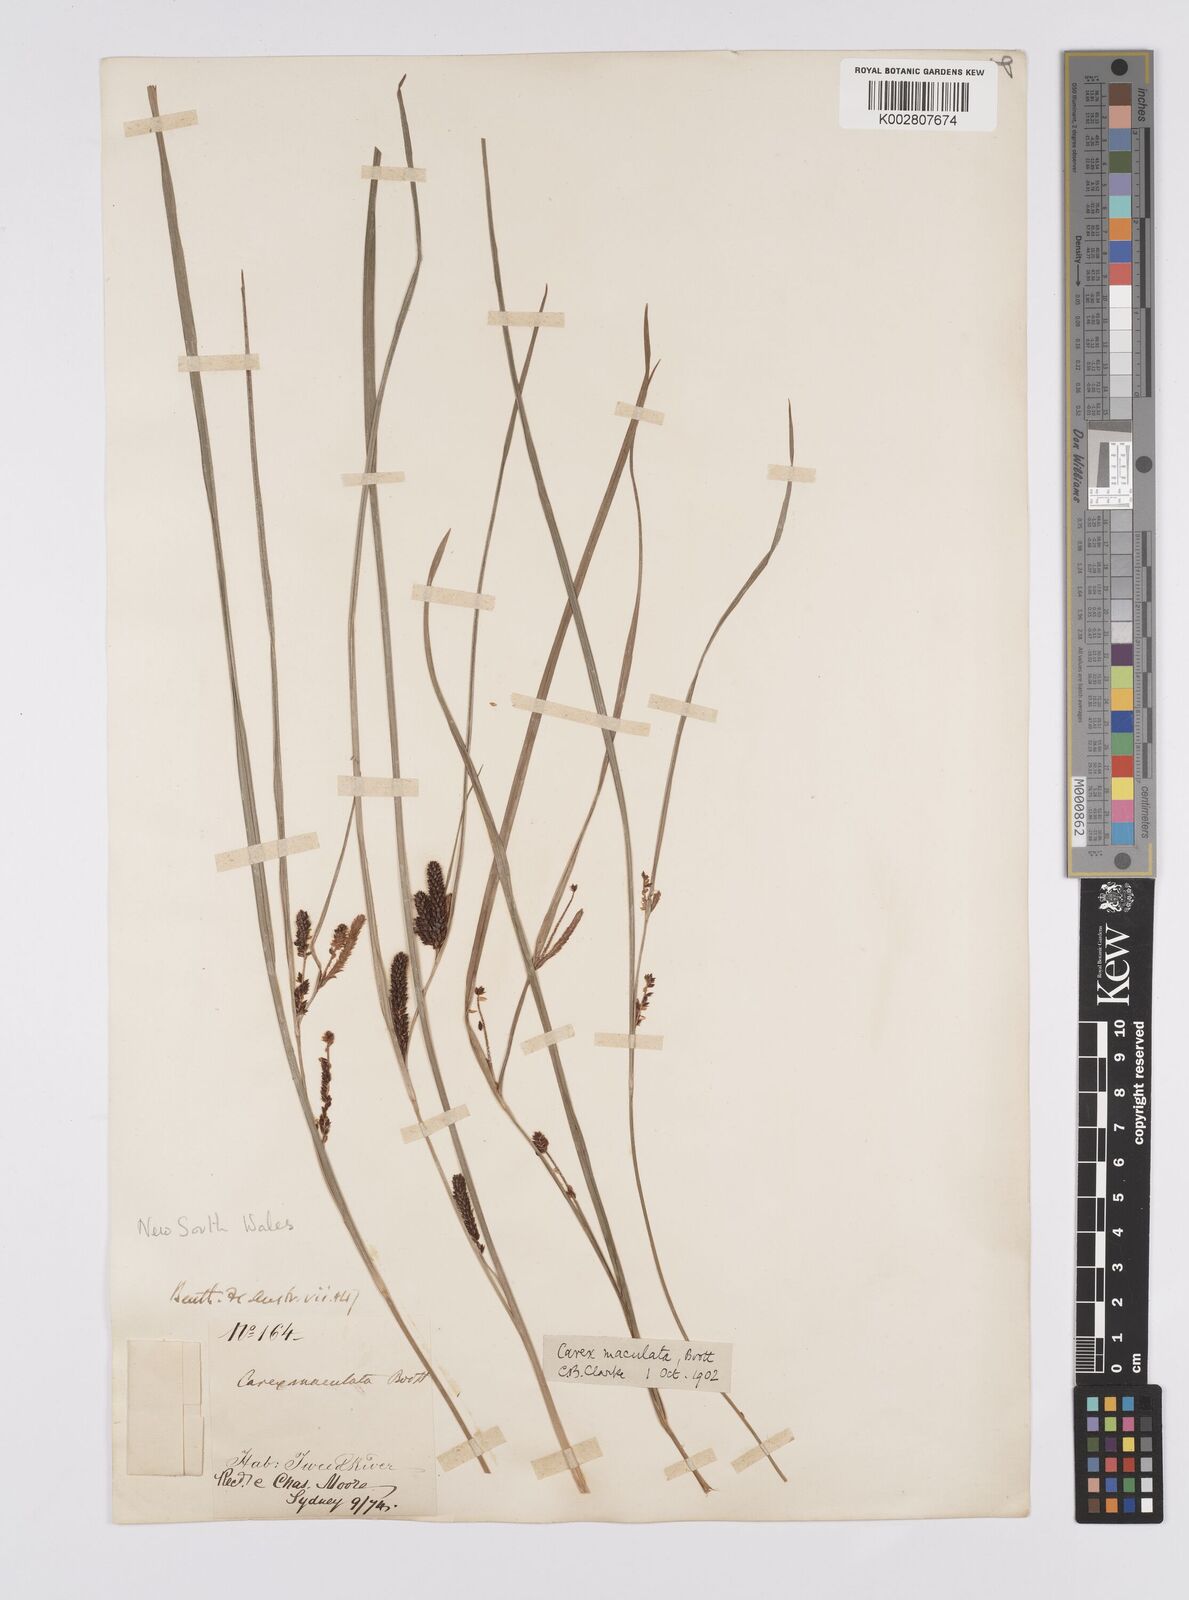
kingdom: Plantae
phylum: Tracheophyta
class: Liliopsida
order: Poales
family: Cyperaceae
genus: Carex
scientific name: Carex maculata
